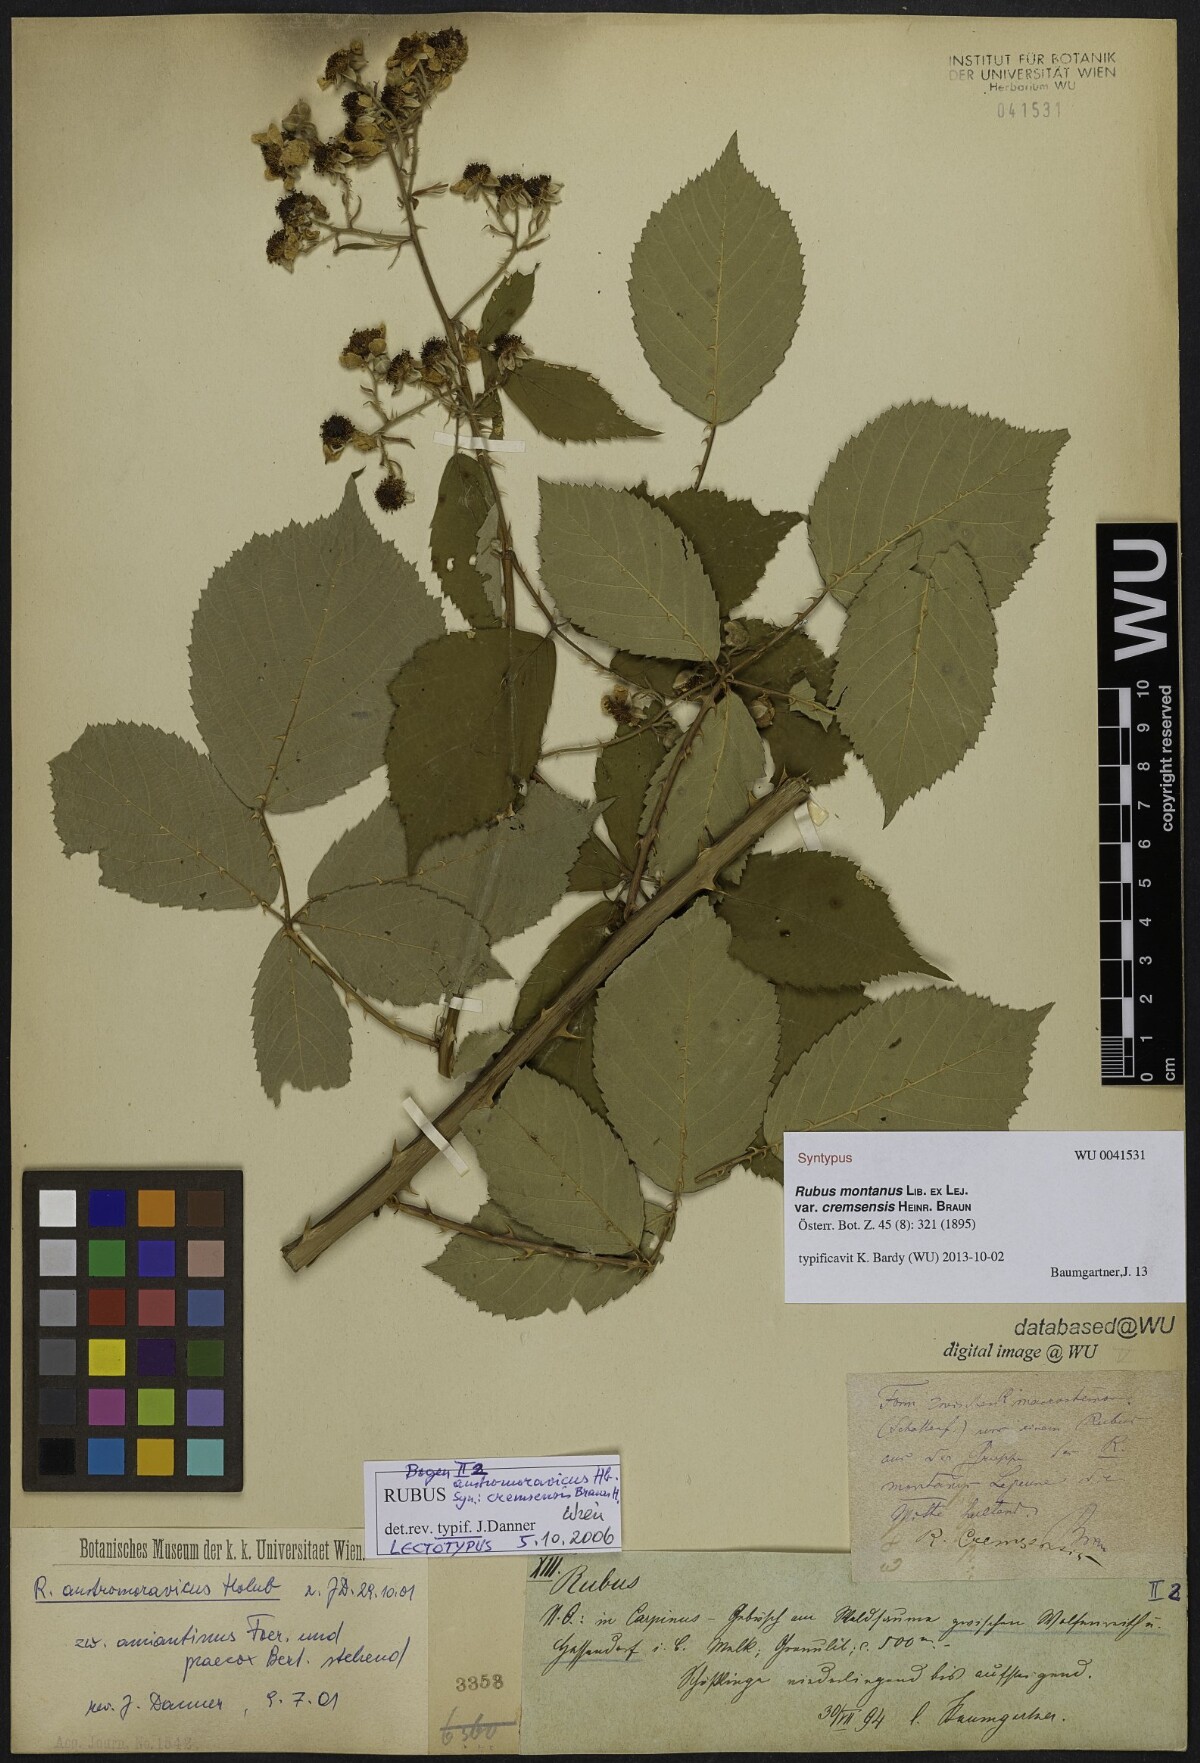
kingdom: Plantae
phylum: Tracheophyta
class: Magnoliopsida
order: Rosales
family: Rosaceae
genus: Rubus
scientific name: Rubus montanus
